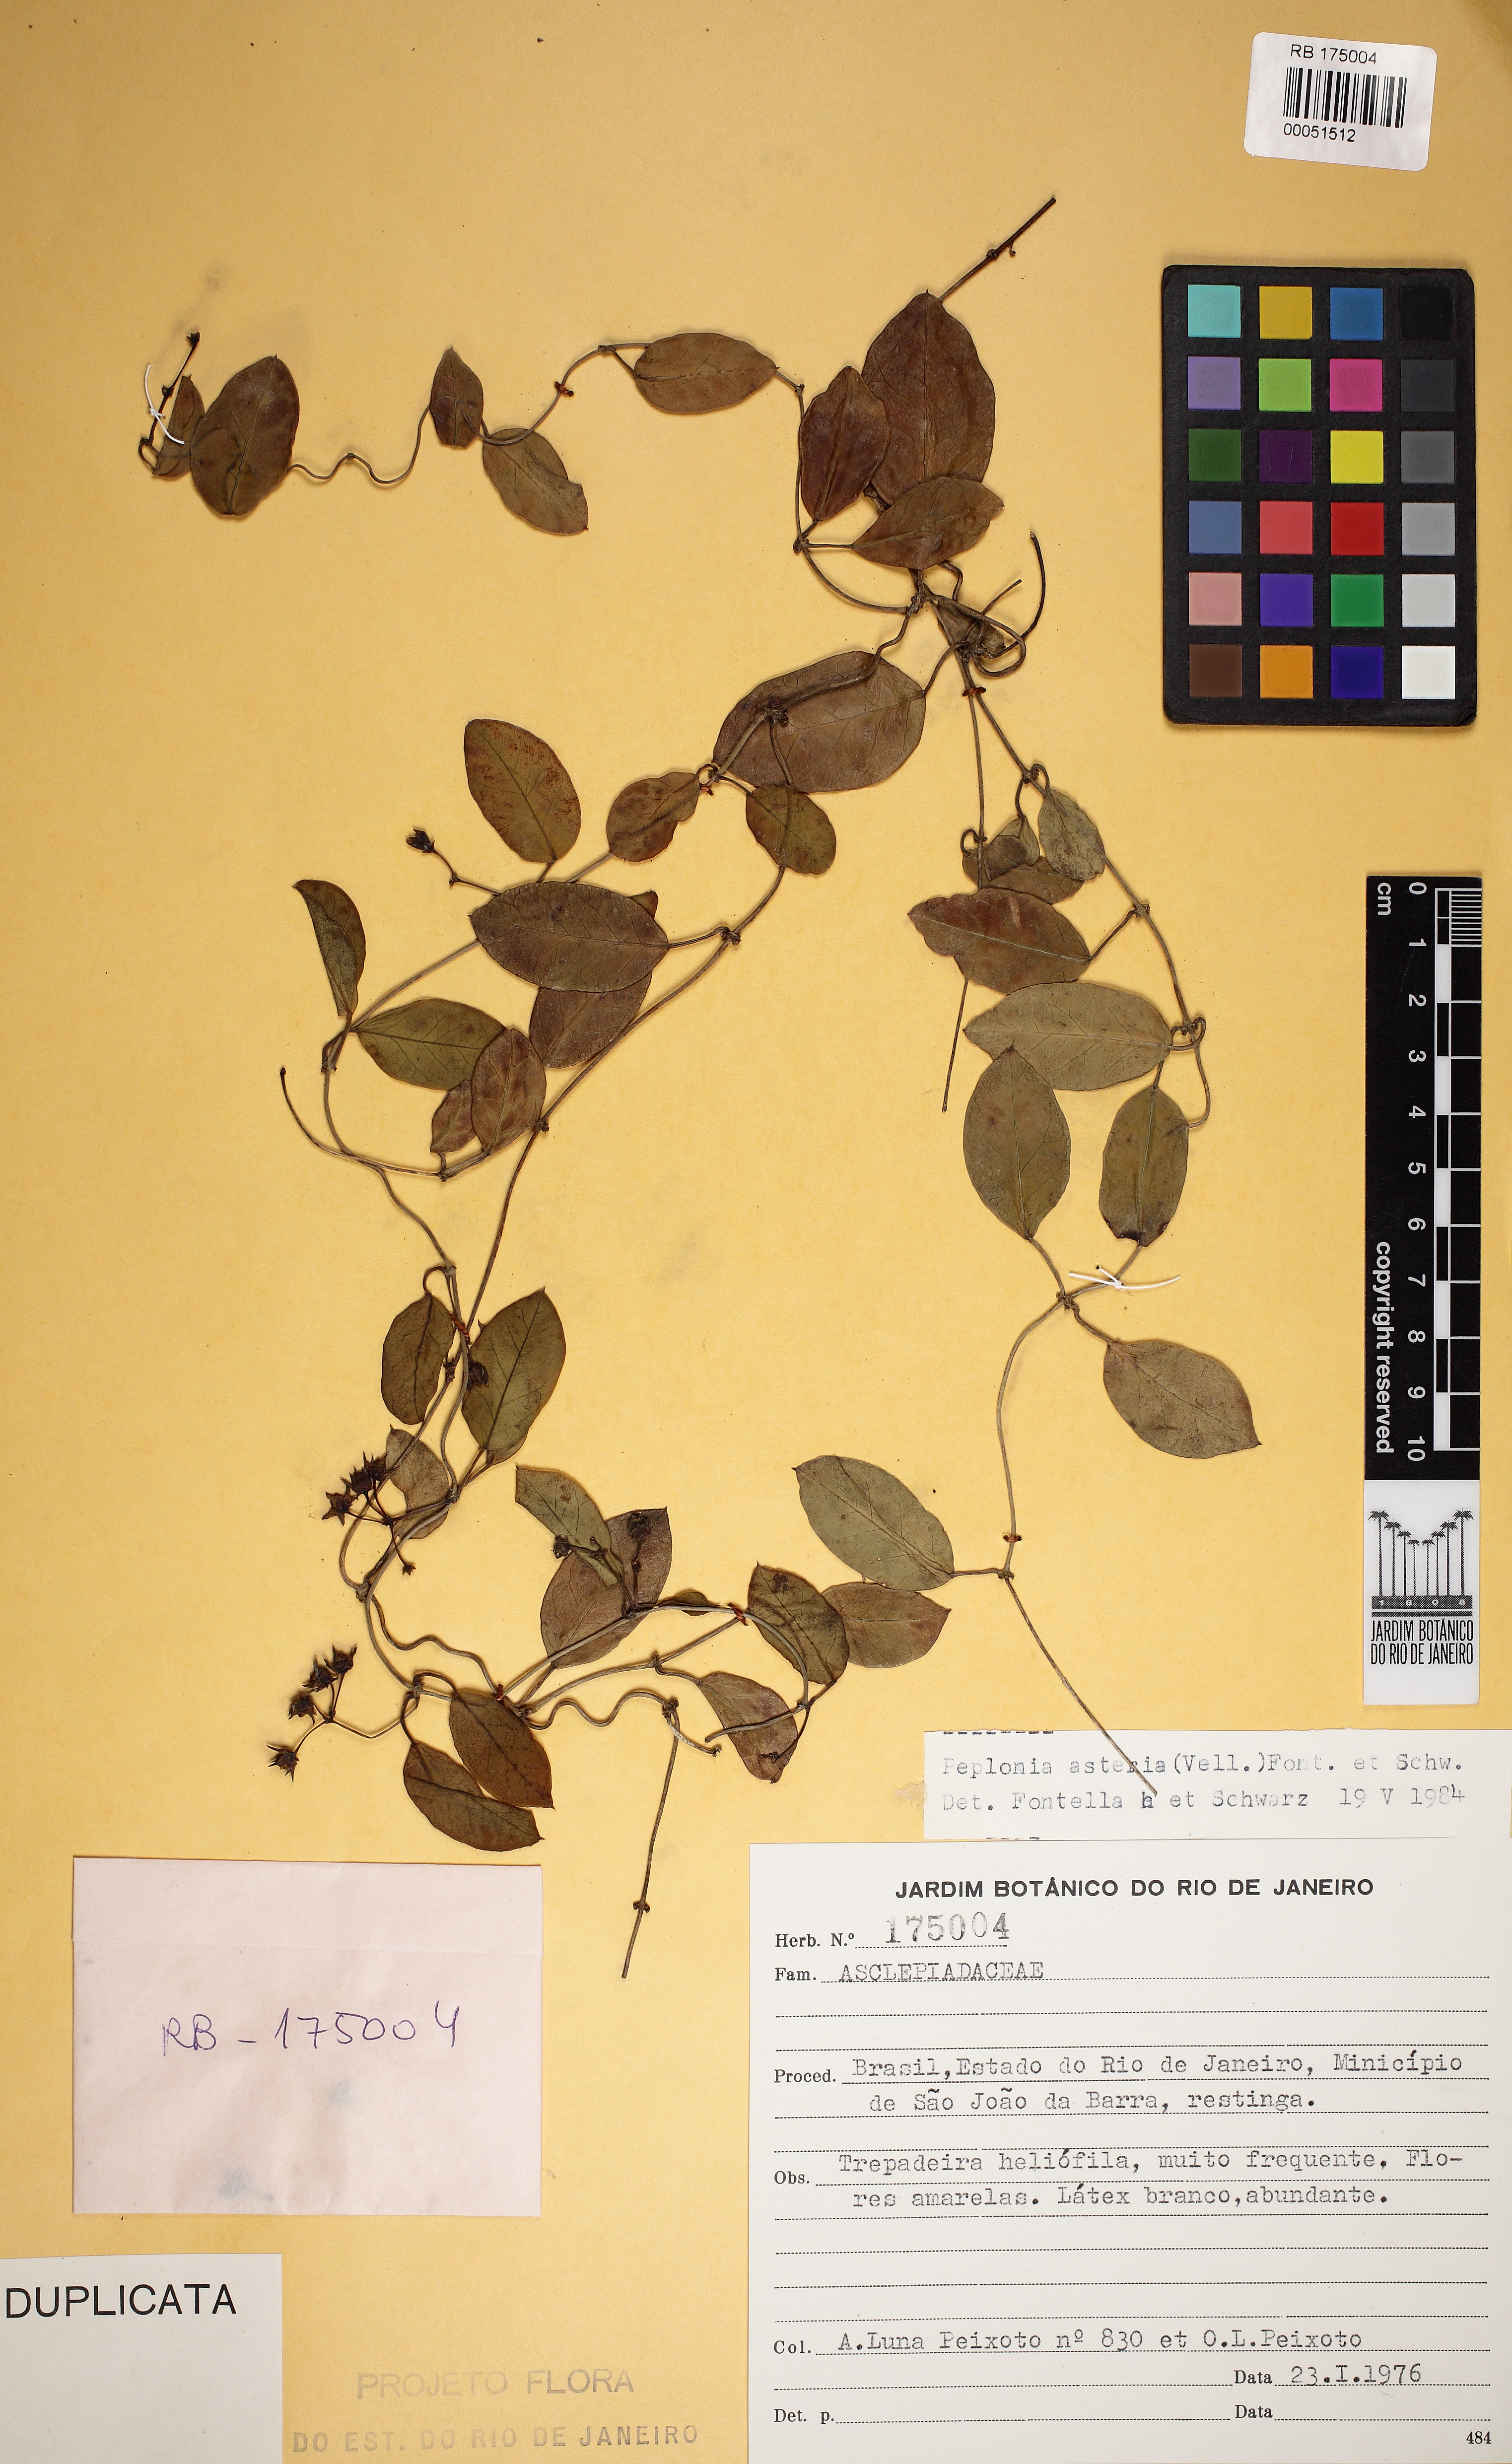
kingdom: Plantae
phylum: Tracheophyta
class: Magnoliopsida
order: Gentianales
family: Apocynaceae
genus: Peplonia
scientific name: Peplonia asteria
